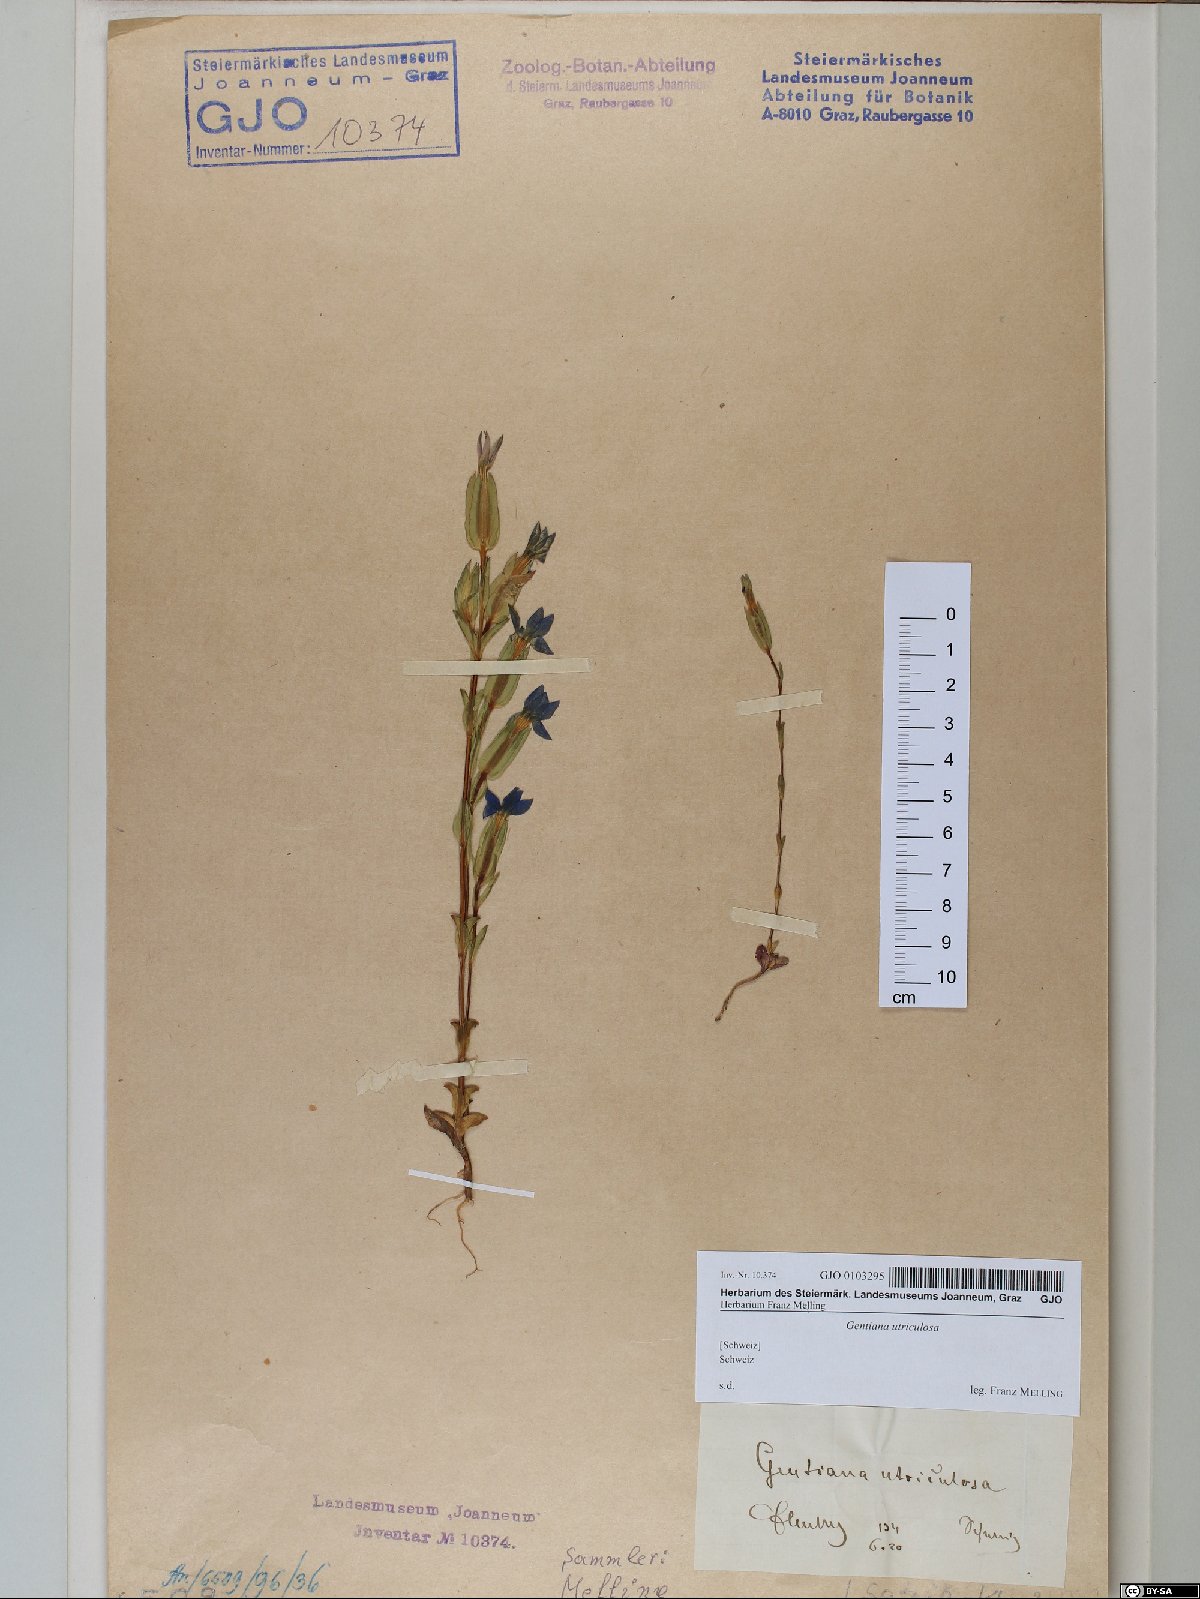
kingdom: Plantae
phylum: Tracheophyta
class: Magnoliopsida
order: Gentianales
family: Gentianaceae
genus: Gentiana
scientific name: Gentiana utriculosa
